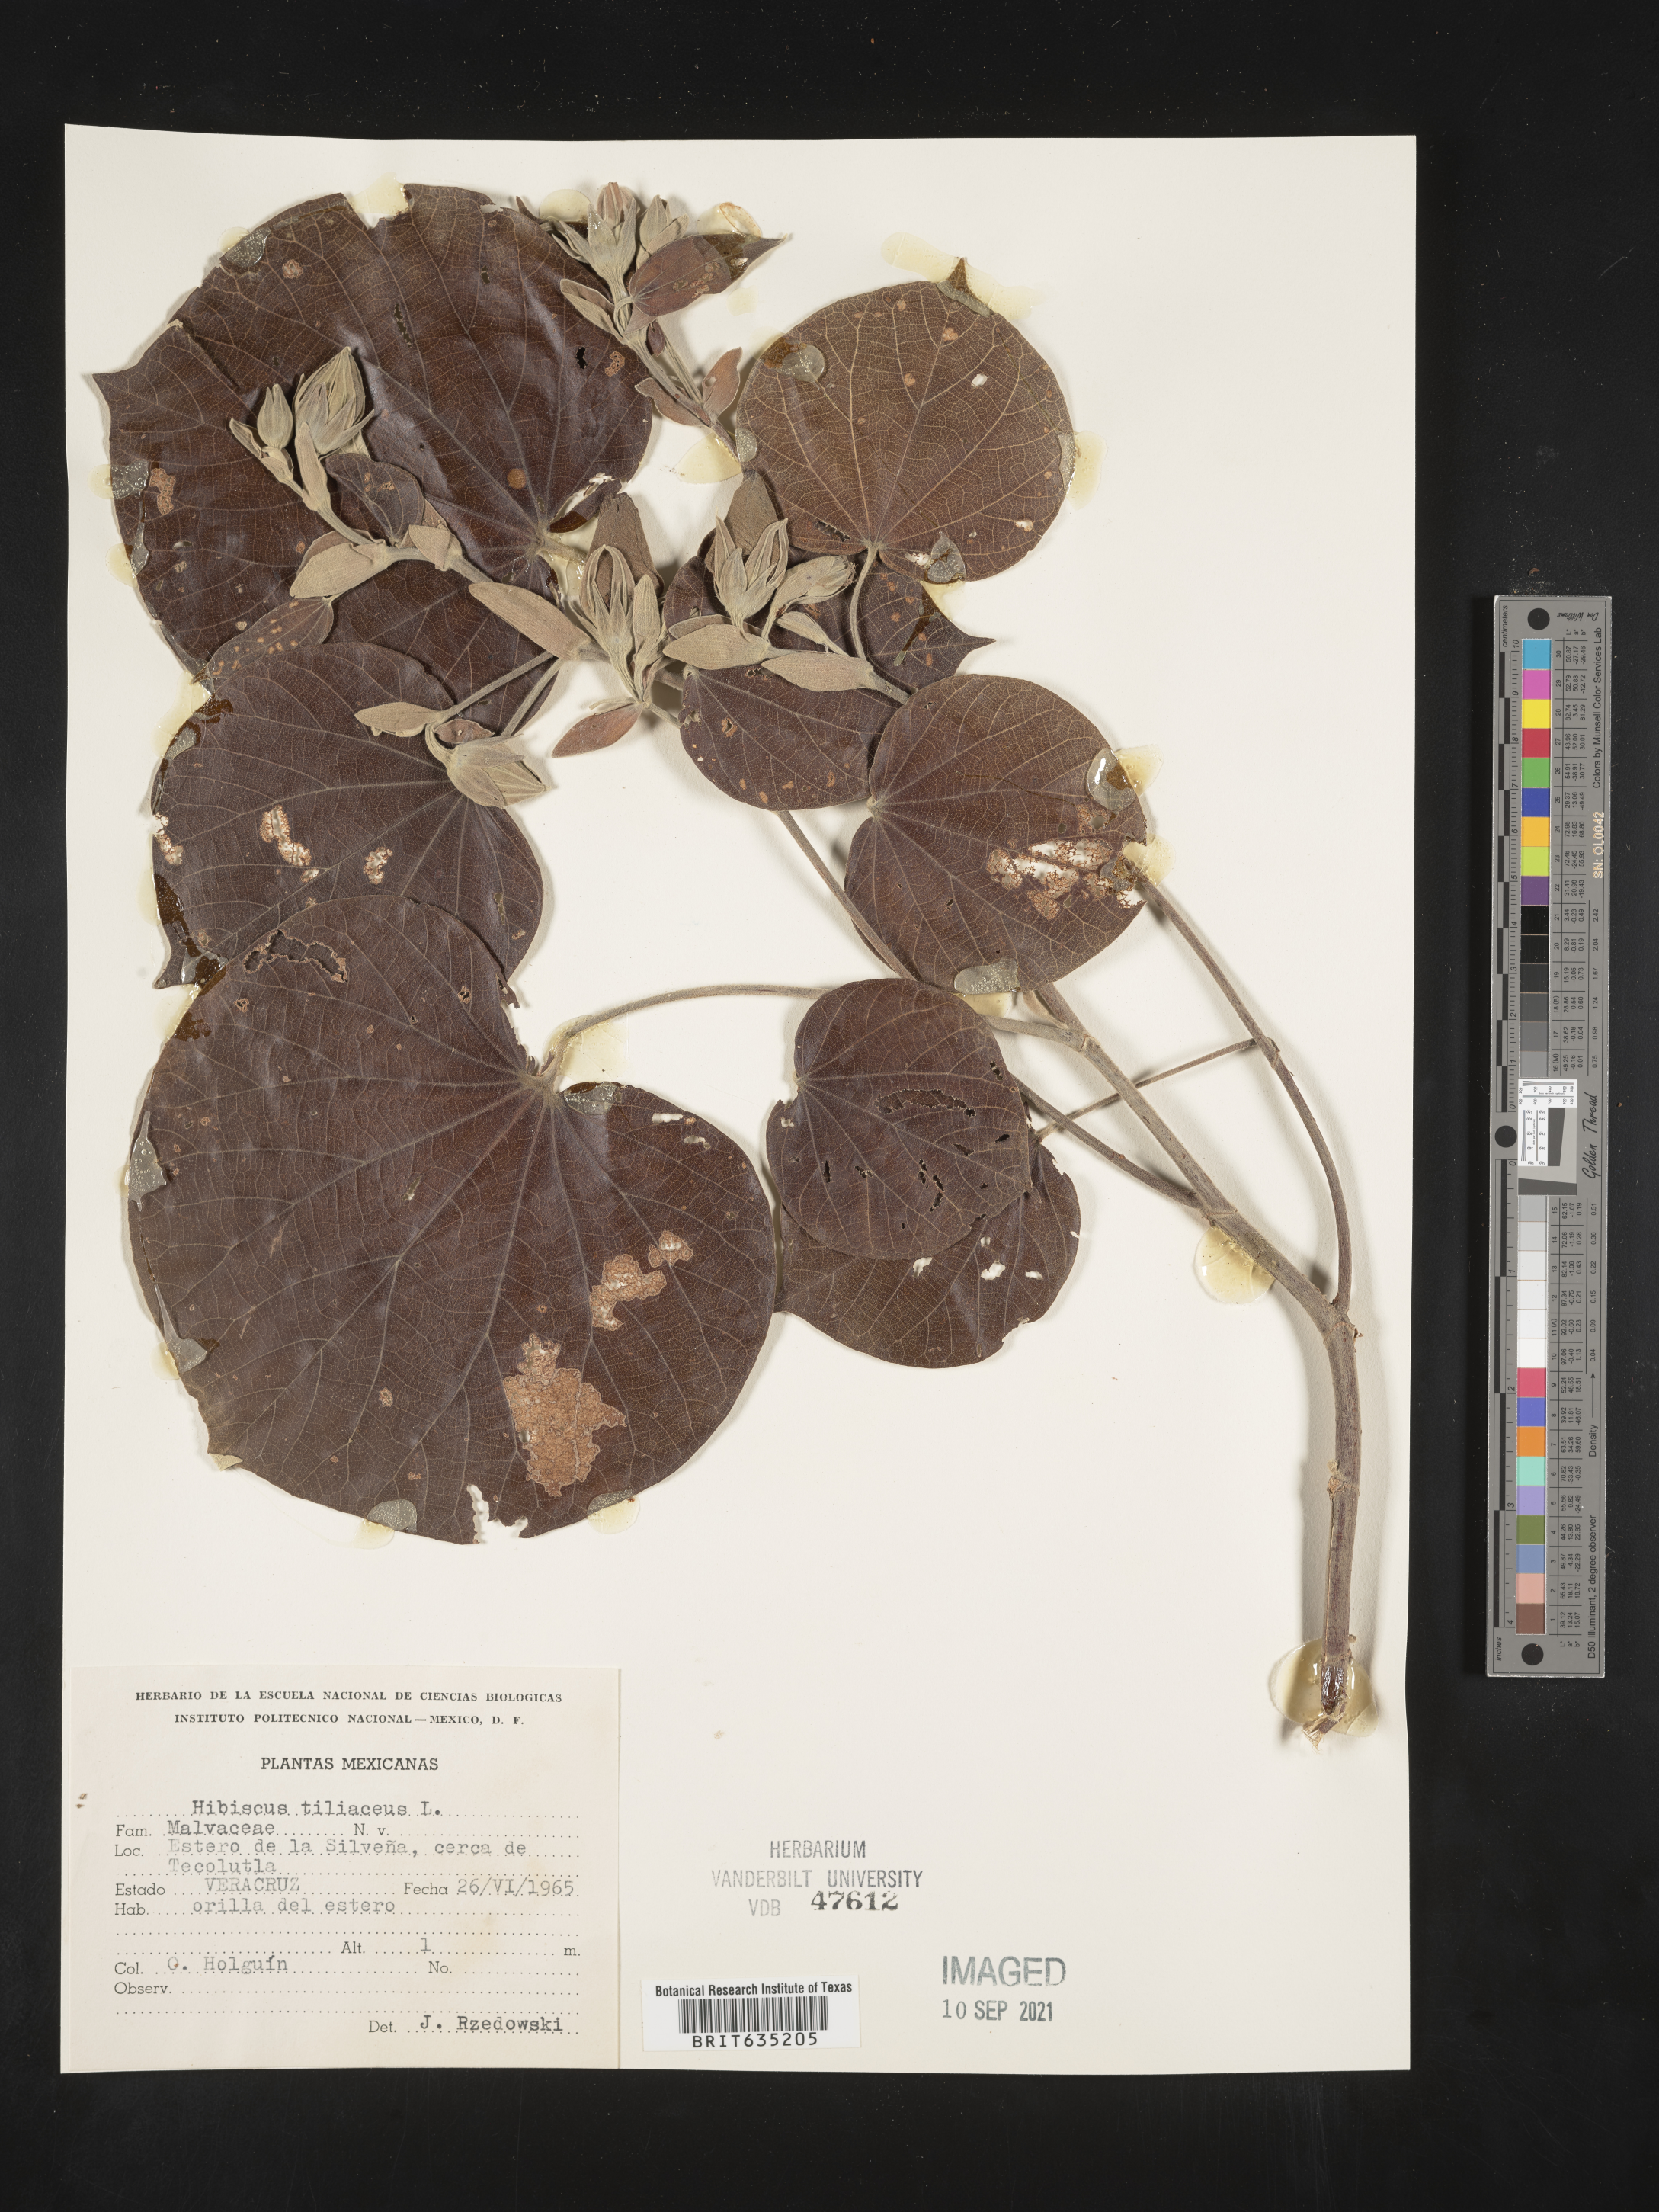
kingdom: Plantae
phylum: Tracheophyta
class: Magnoliopsida
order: Malvales
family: Malvaceae
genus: Hibiscus
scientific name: Hibiscus
